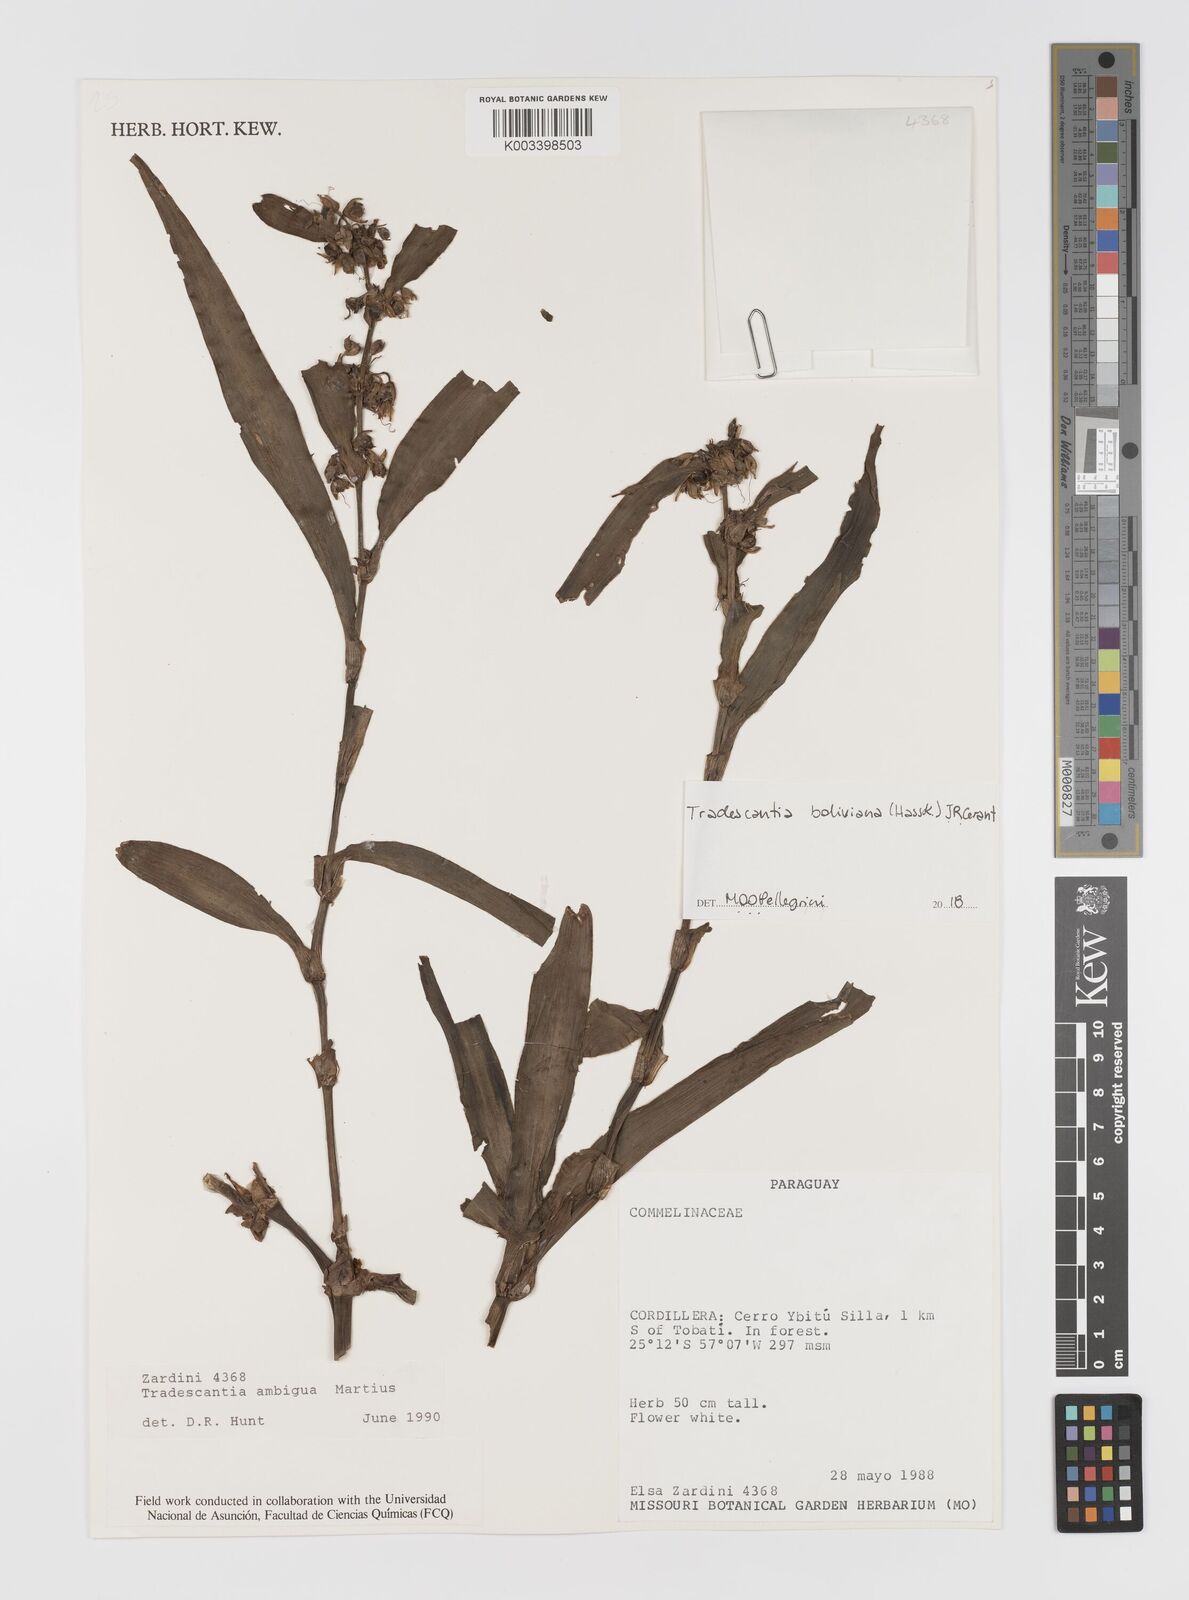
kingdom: Plantae
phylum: Tracheophyta
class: Liliopsida
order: Commelinales
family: Commelinaceae
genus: Tradescantia
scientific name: Tradescantia boliviana
